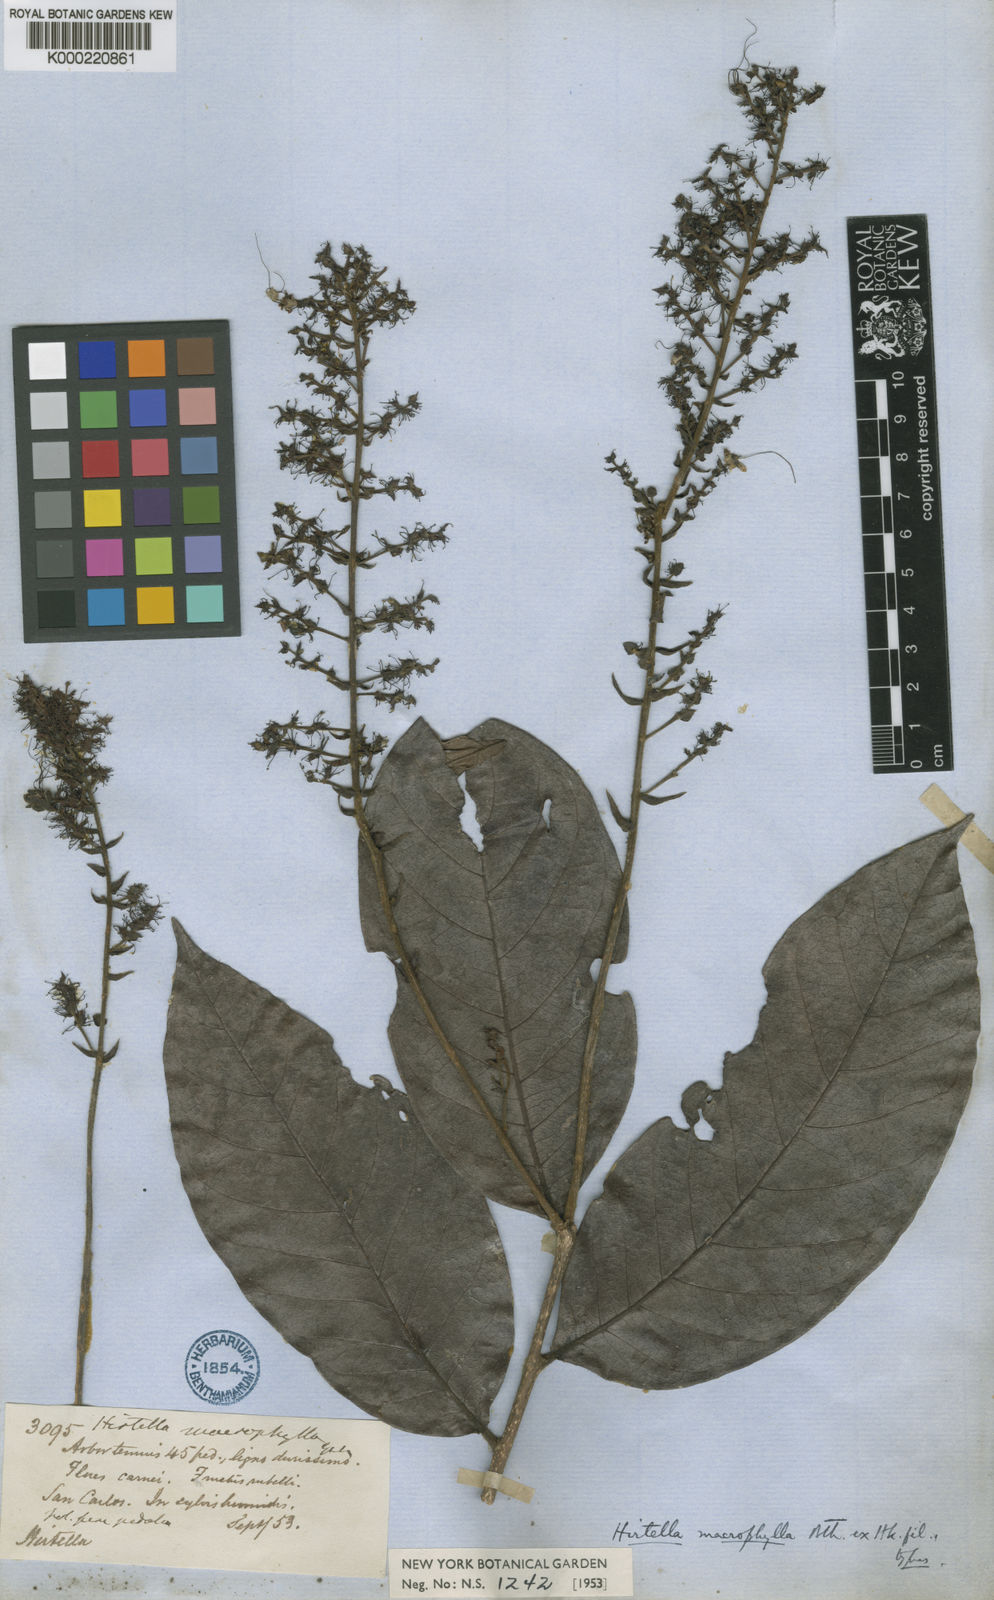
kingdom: Plantae
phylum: Tracheophyta
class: Magnoliopsida
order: Malpighiales
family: Chrysobalanaceae
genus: Hirtella
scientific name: Hirtella macrophylla
